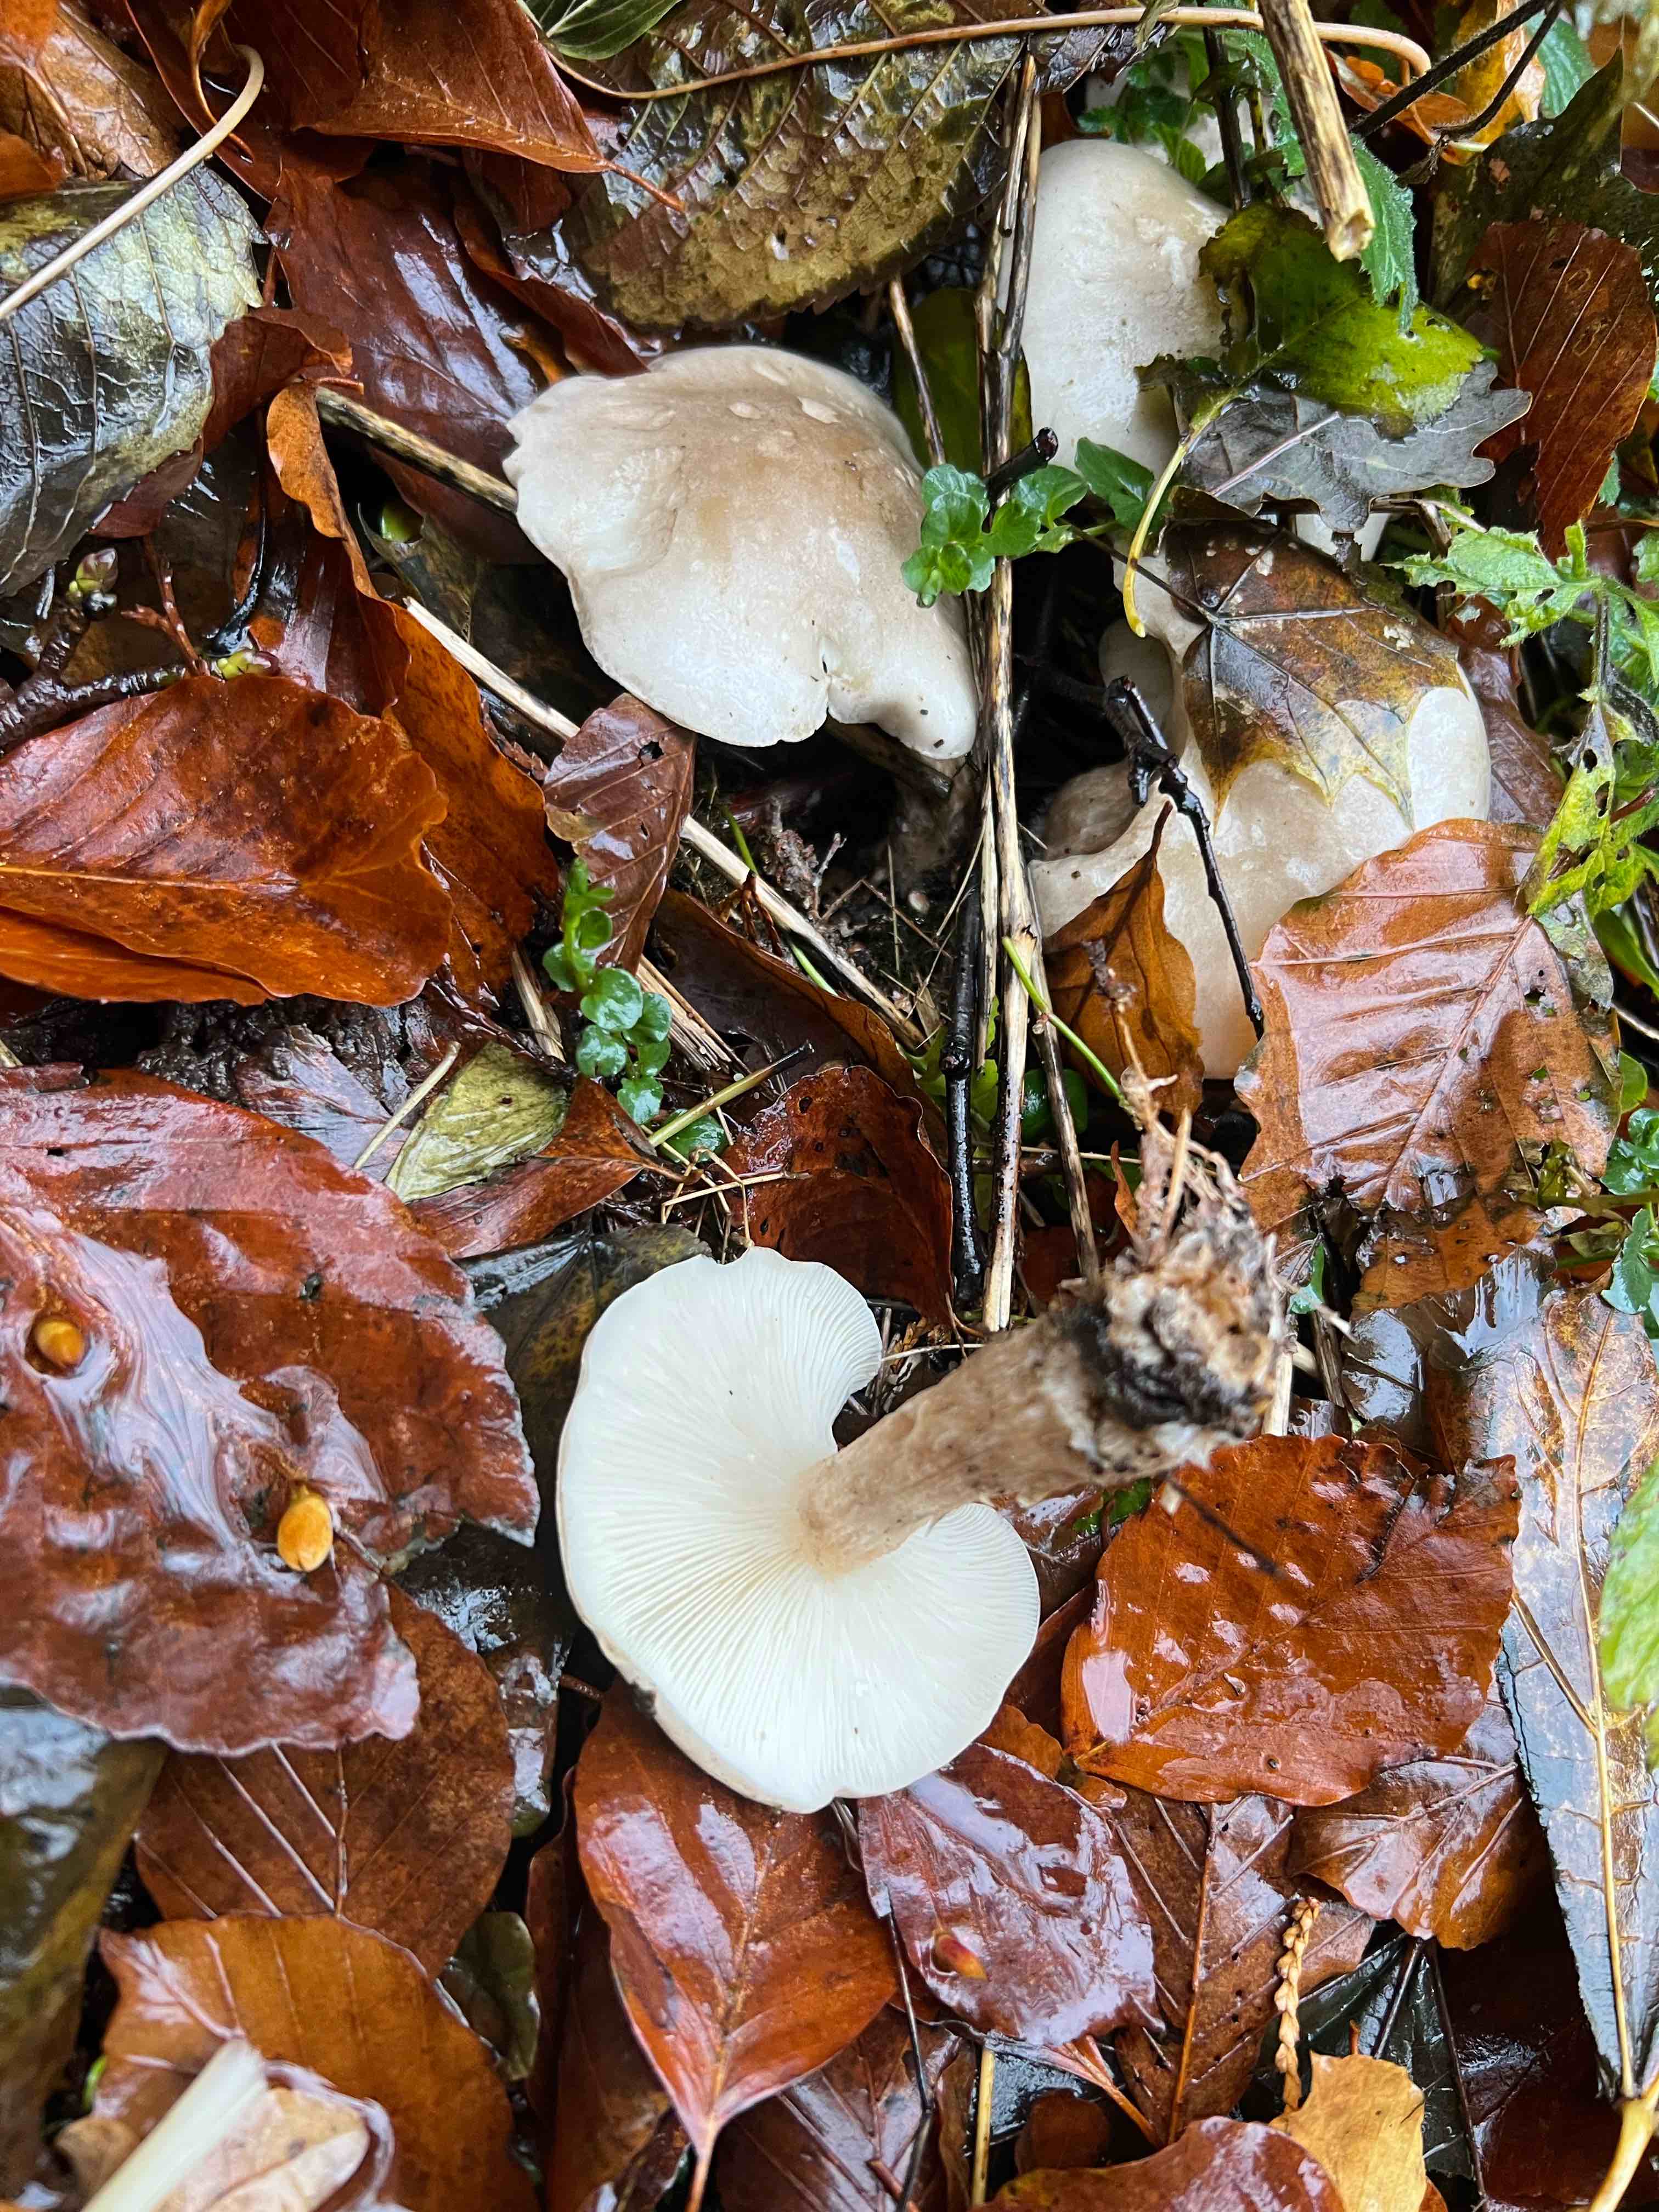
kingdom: Fungi
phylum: Basidiomycota
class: Agaricomycetes
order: Agaricales
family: Tricholomataceae
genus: Clitocybe
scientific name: Clitocybe nebularis
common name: tåge-tragthat
